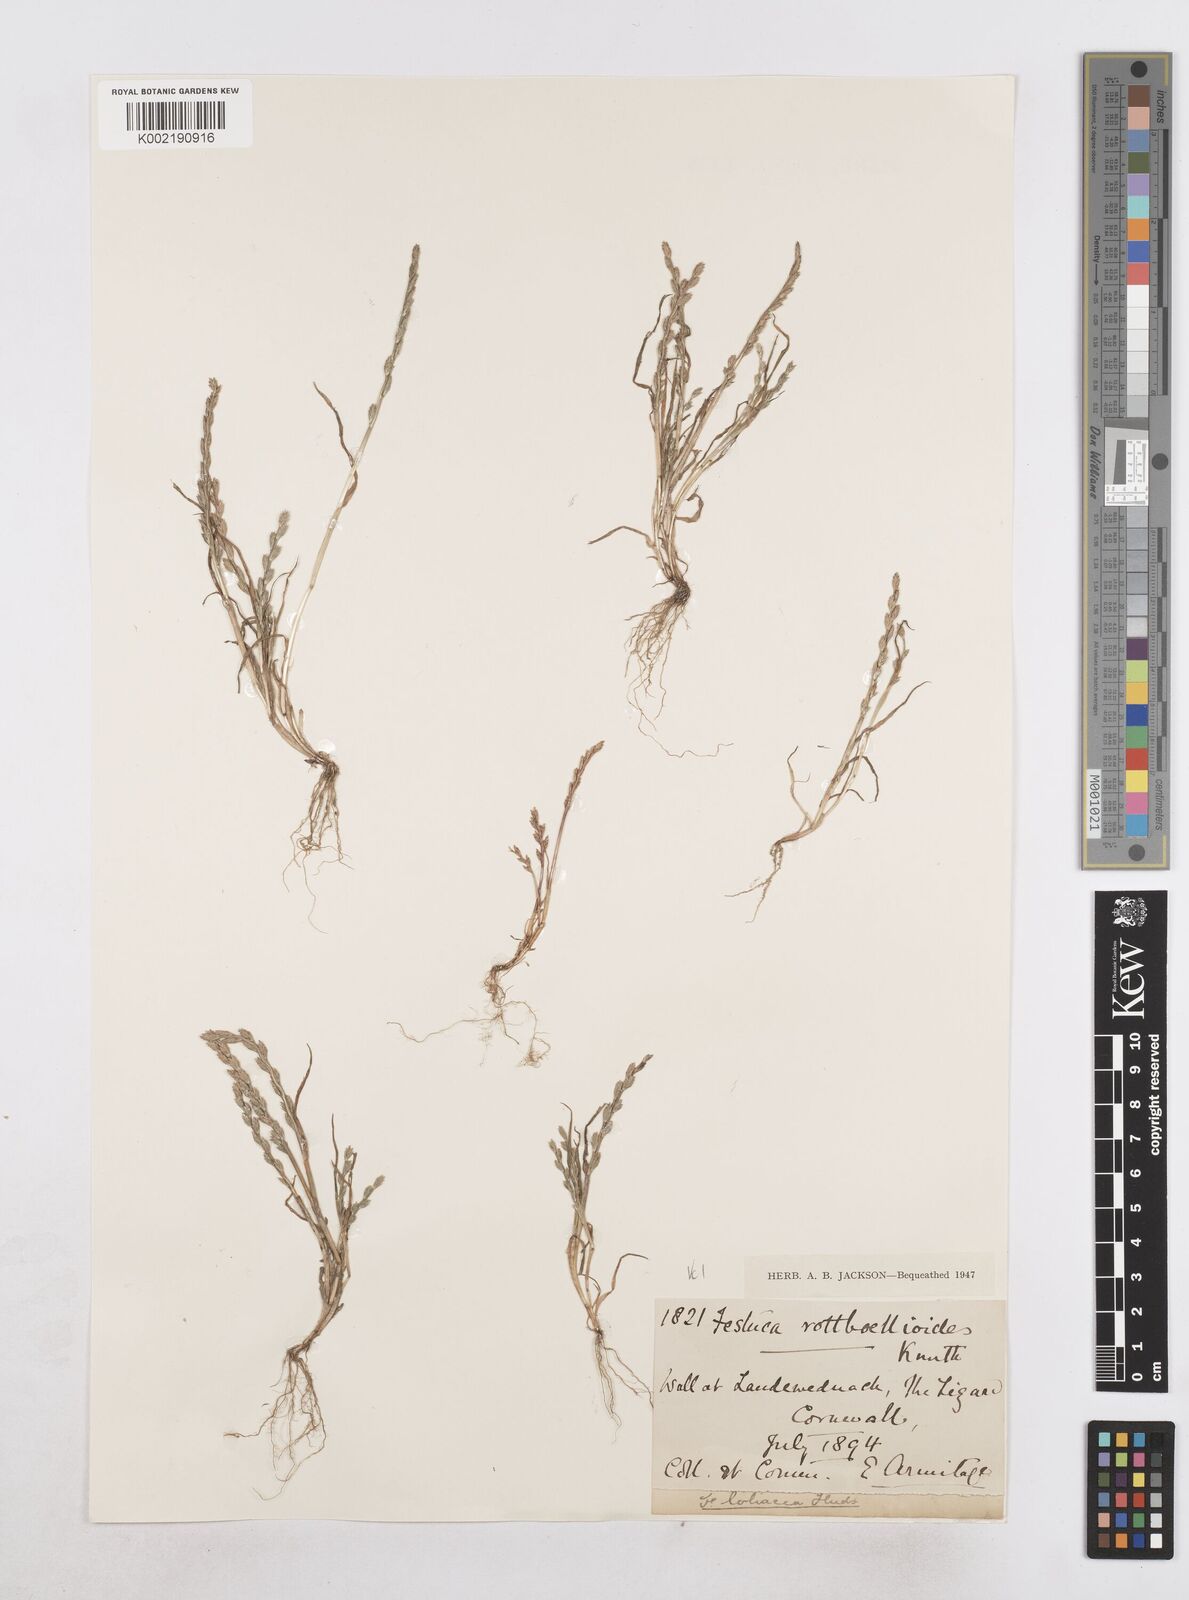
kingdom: Plantae
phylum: Tracheophyta
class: Liliopsida
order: Poales
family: Poaceae
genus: Catapodium
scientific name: Catapodium marinum
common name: Sea fern-grass
